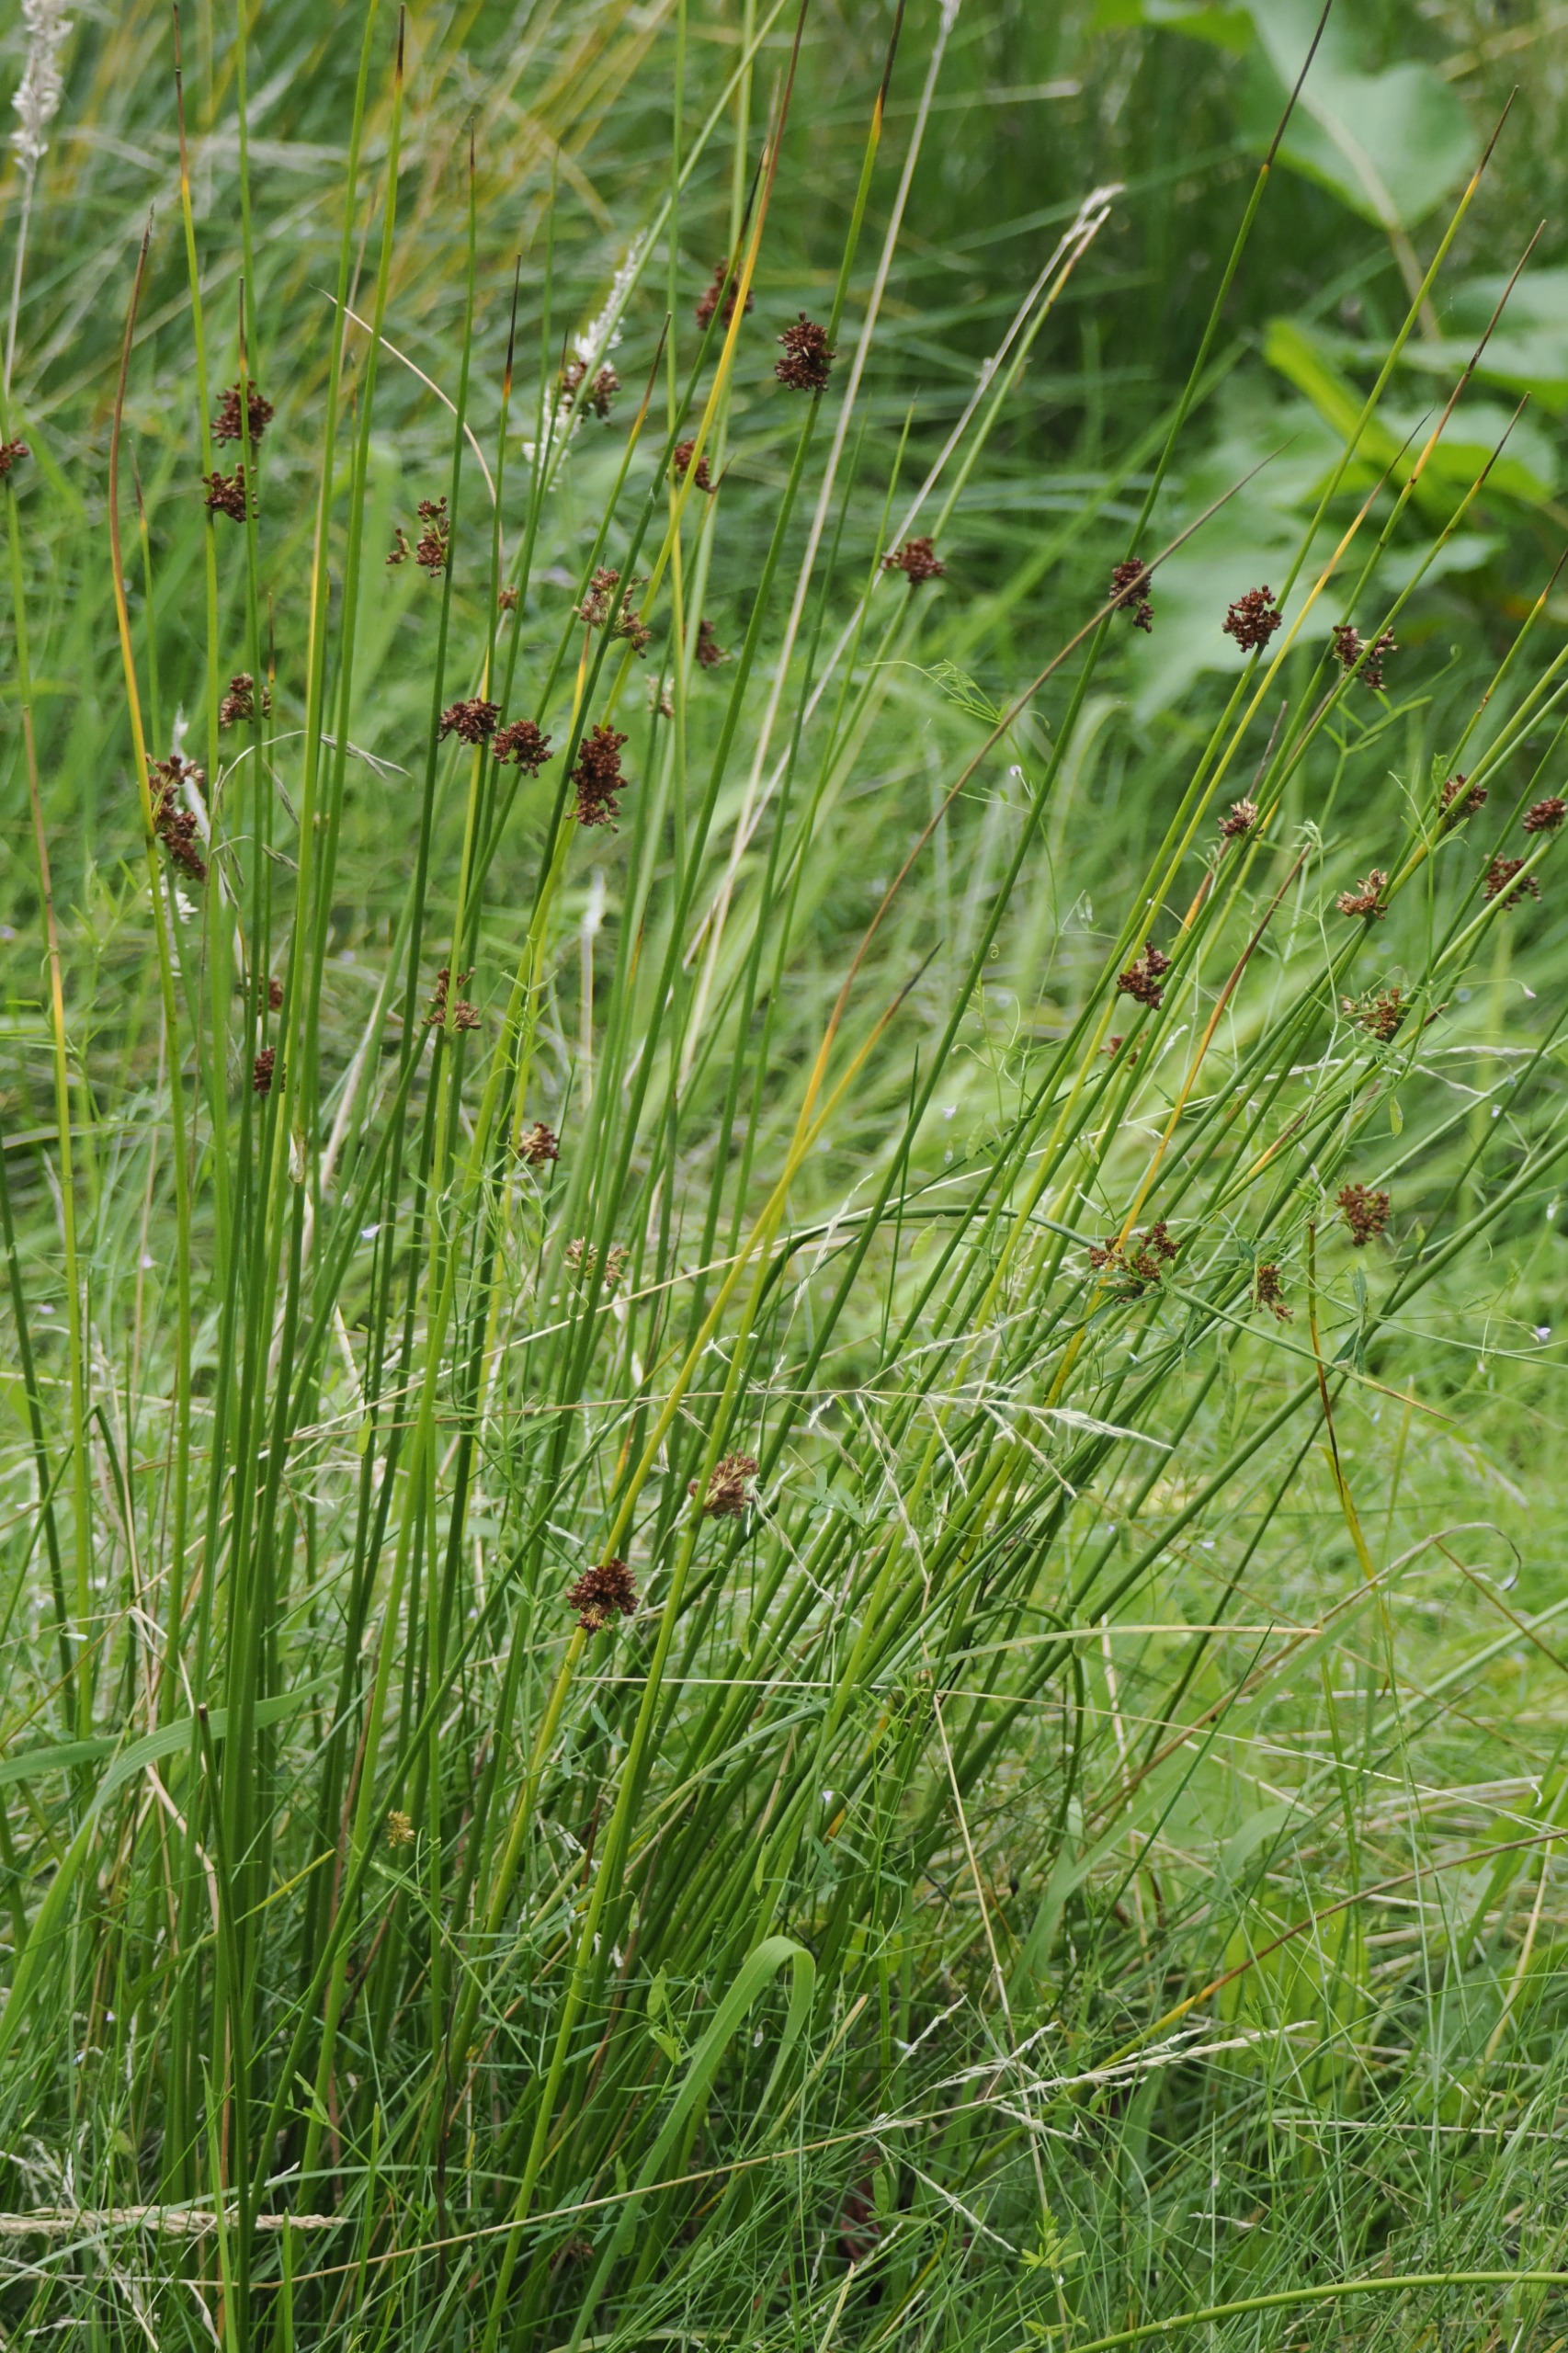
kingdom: Plantae
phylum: Tracheophyta
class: Liliopsida
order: Poales
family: Juncaceae
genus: Juncus
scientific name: Juncus effusus
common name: Lyse-siv
